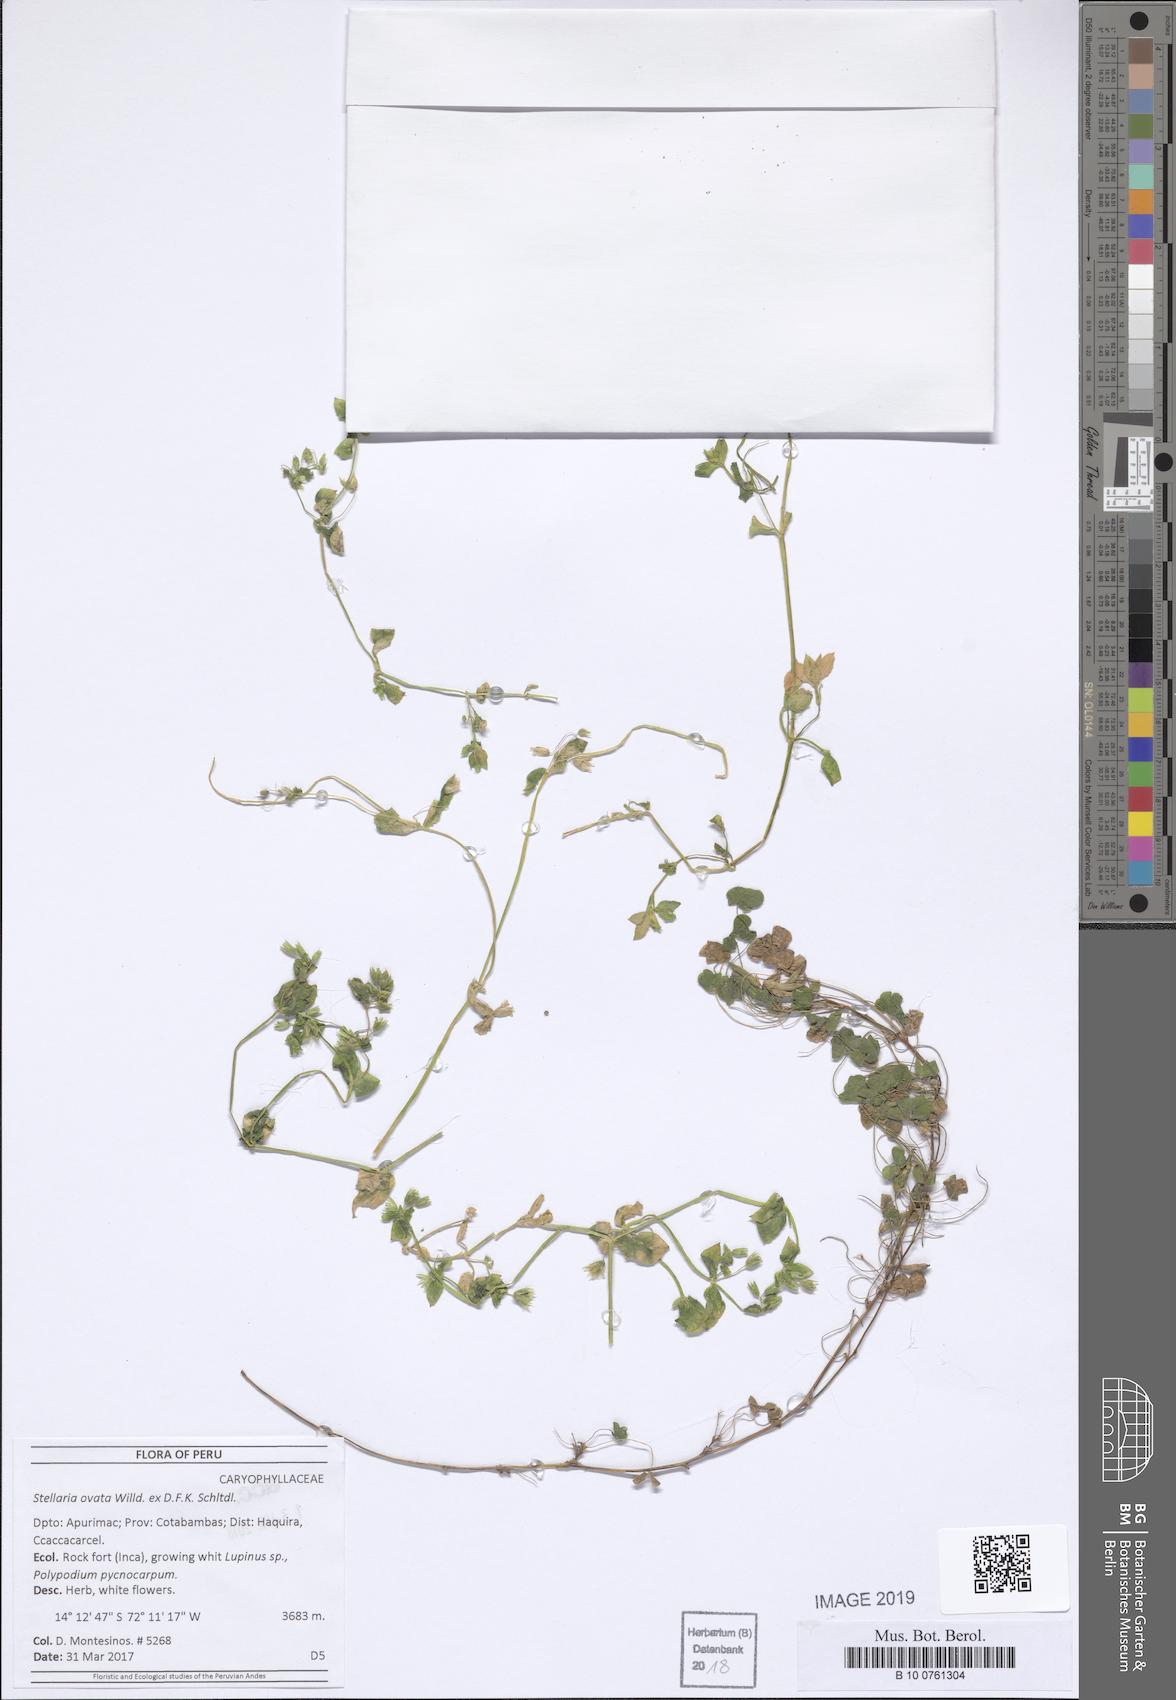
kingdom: Plantae
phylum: Tracheophyta
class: Magnoliopsida
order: Caryophyllales
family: Caryophyllaceae
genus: Stellaria
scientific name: Stellaria ovata
